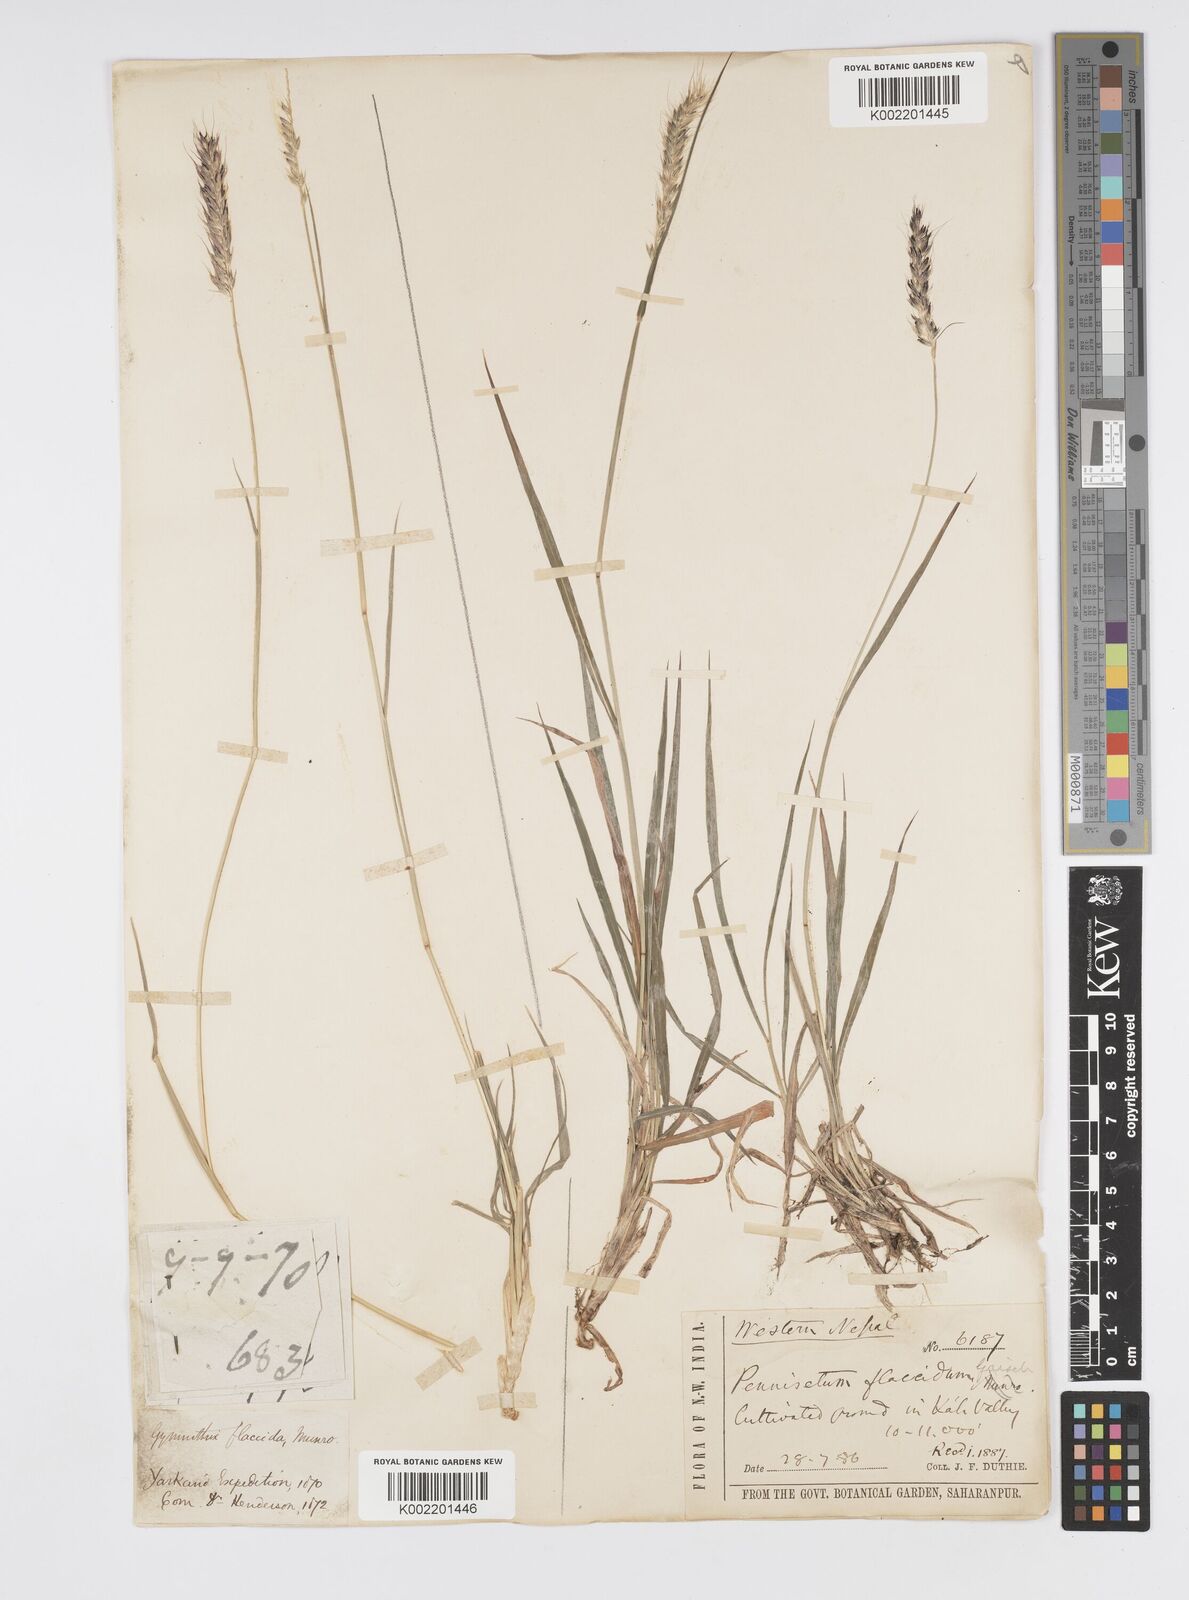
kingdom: Plantae
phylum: Tracheophyta
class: Liliopsida
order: Poales
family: Poaceae
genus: Cenchrus
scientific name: Cenchrus flaccidus
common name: Flaccid grass
